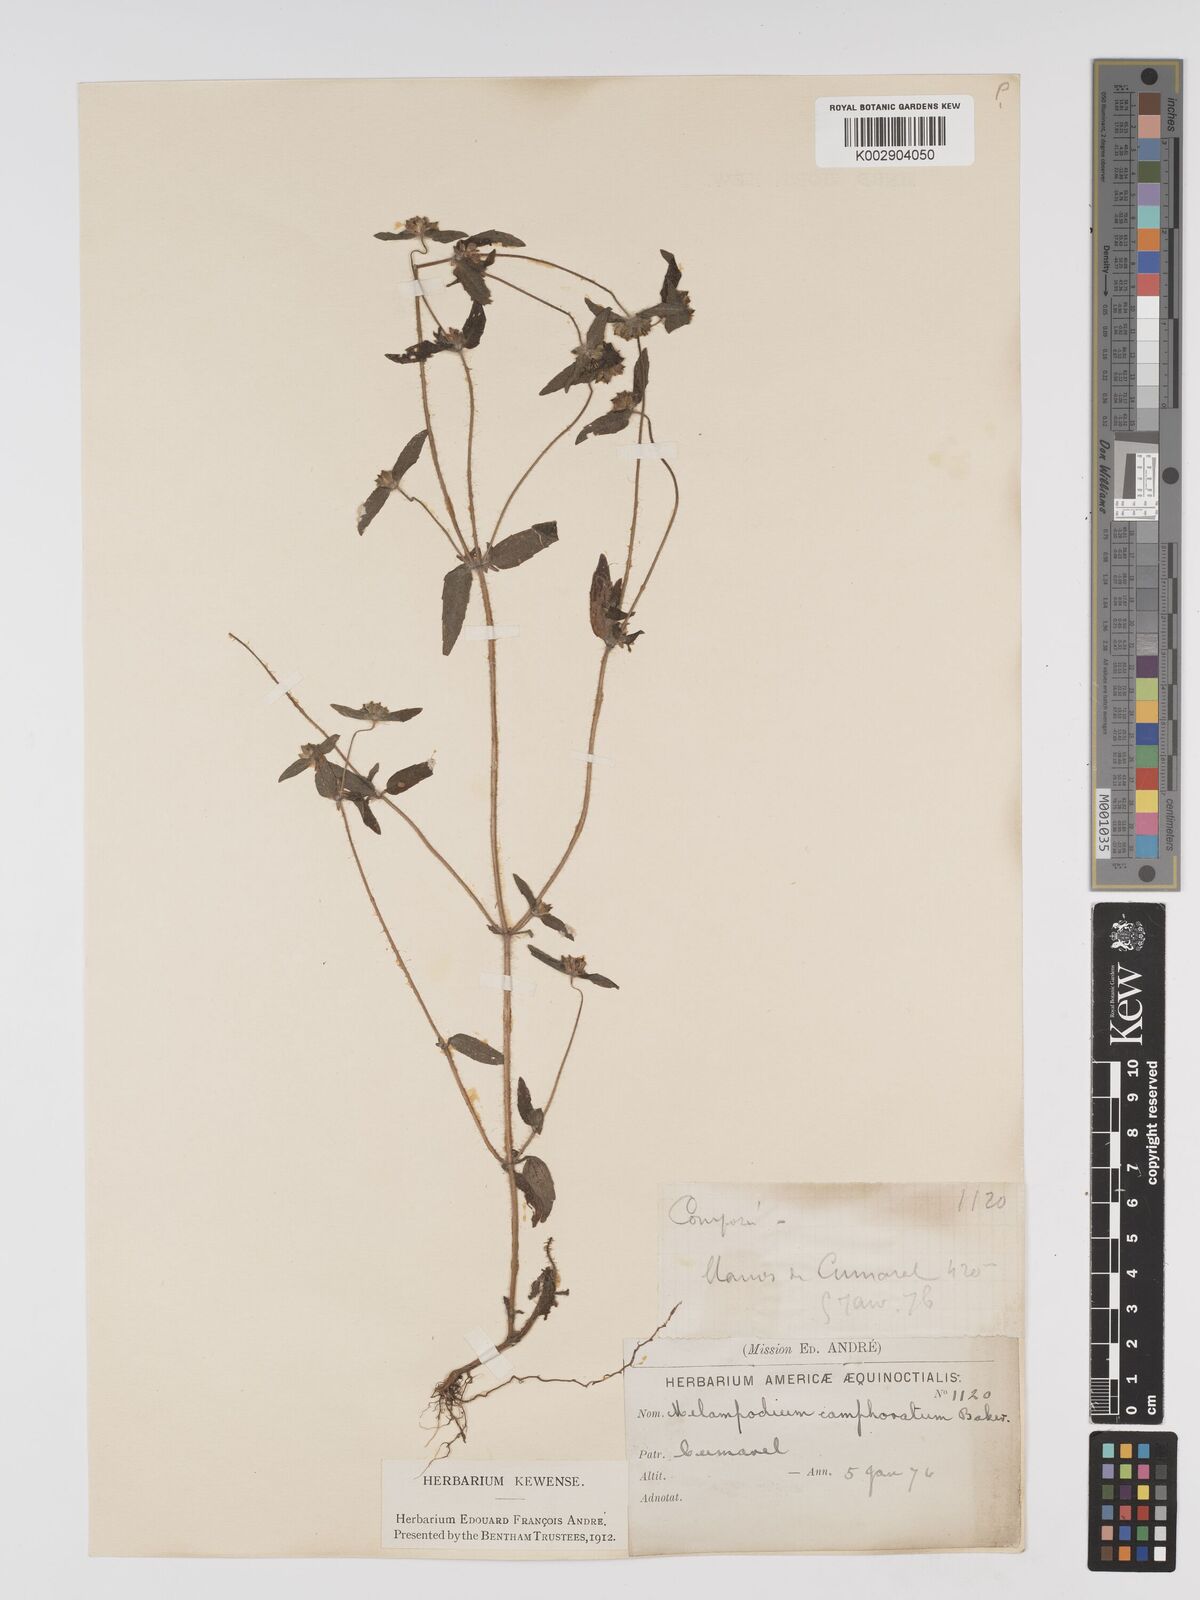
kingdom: Plantae
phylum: Tracheophyta
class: Magnoliopsida
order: Asterales
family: Asteraceae
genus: Unxia
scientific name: Unxia camphorata
